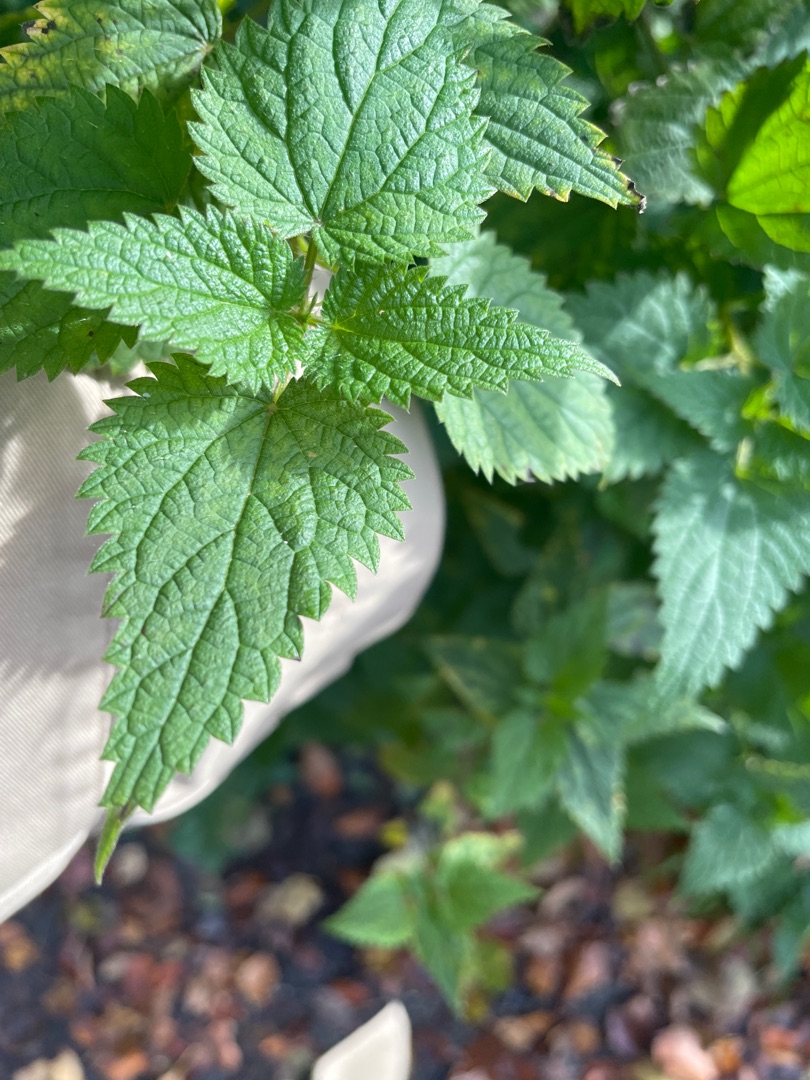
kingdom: Plantae
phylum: Tracheophyta
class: Magnoliopsida
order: Rosales
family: Urticaceae
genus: Urtica
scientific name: Urtica dioica
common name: Stor nælde
